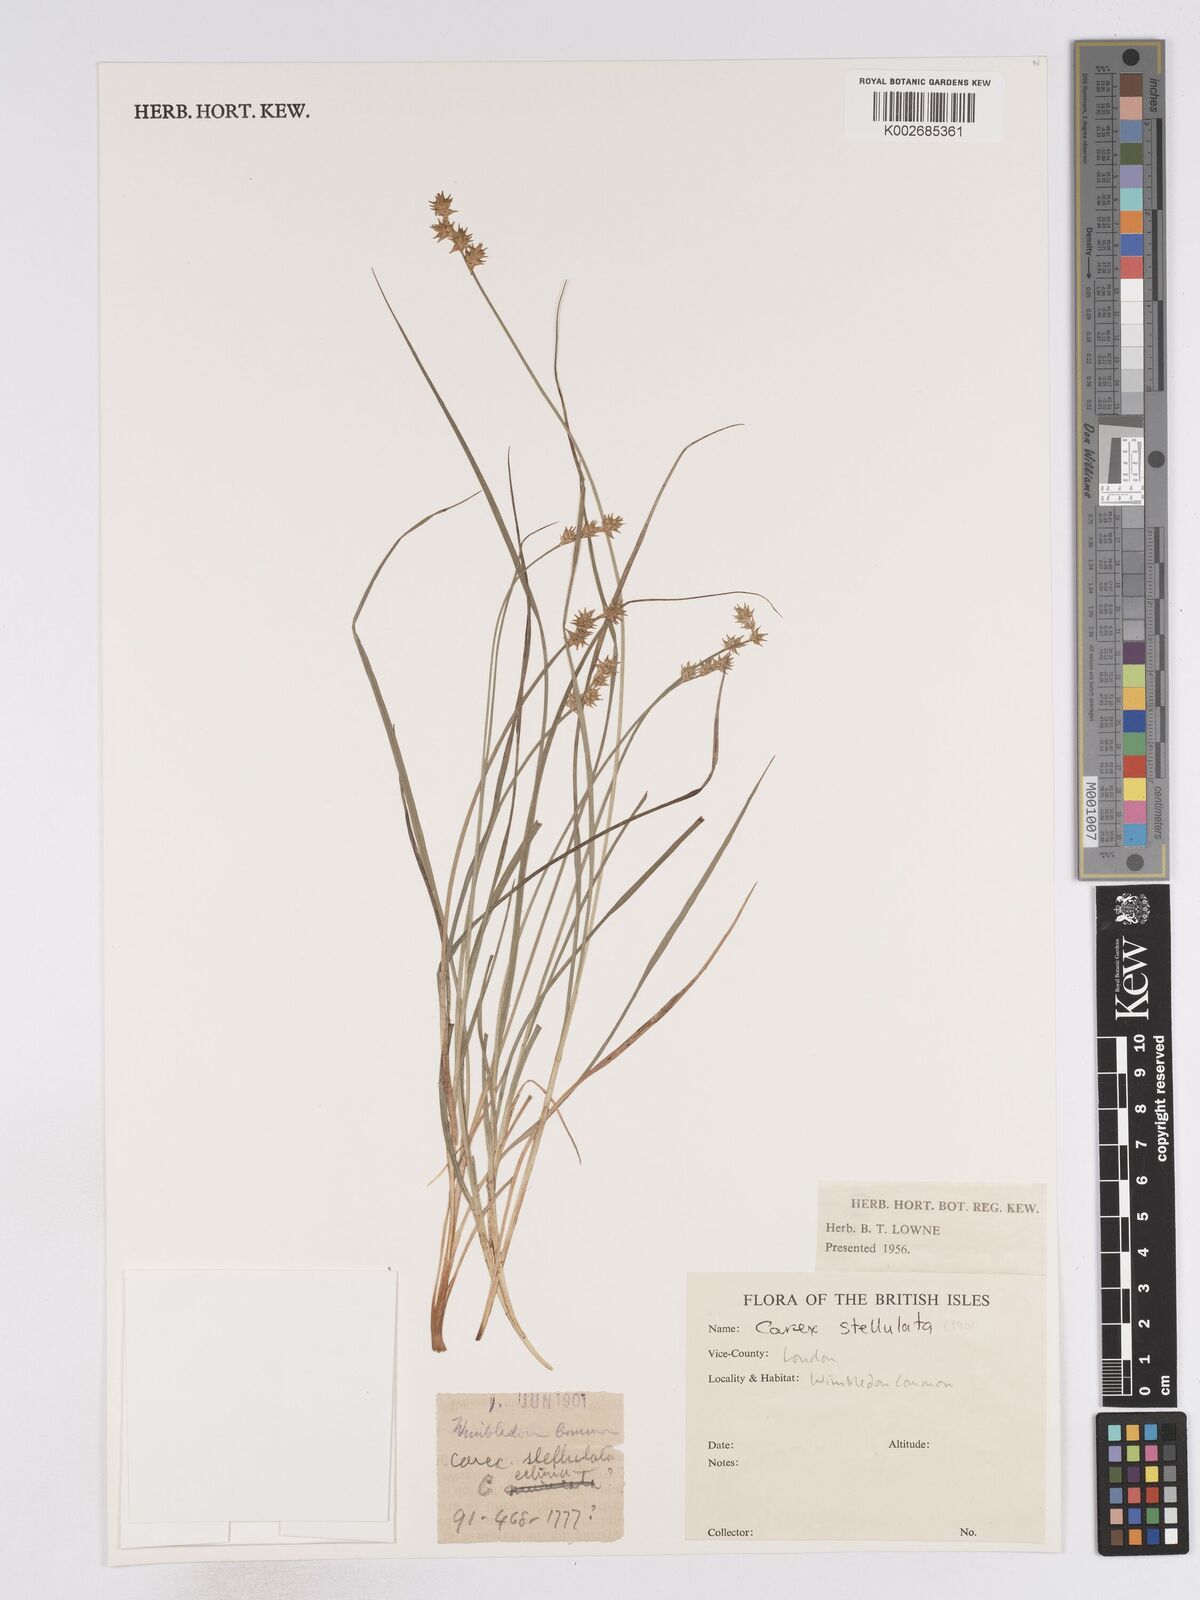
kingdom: Plantae
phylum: Tracheophyta
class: Liliopsida
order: Poales
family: Cyperaceae
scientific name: Cyperaceae
